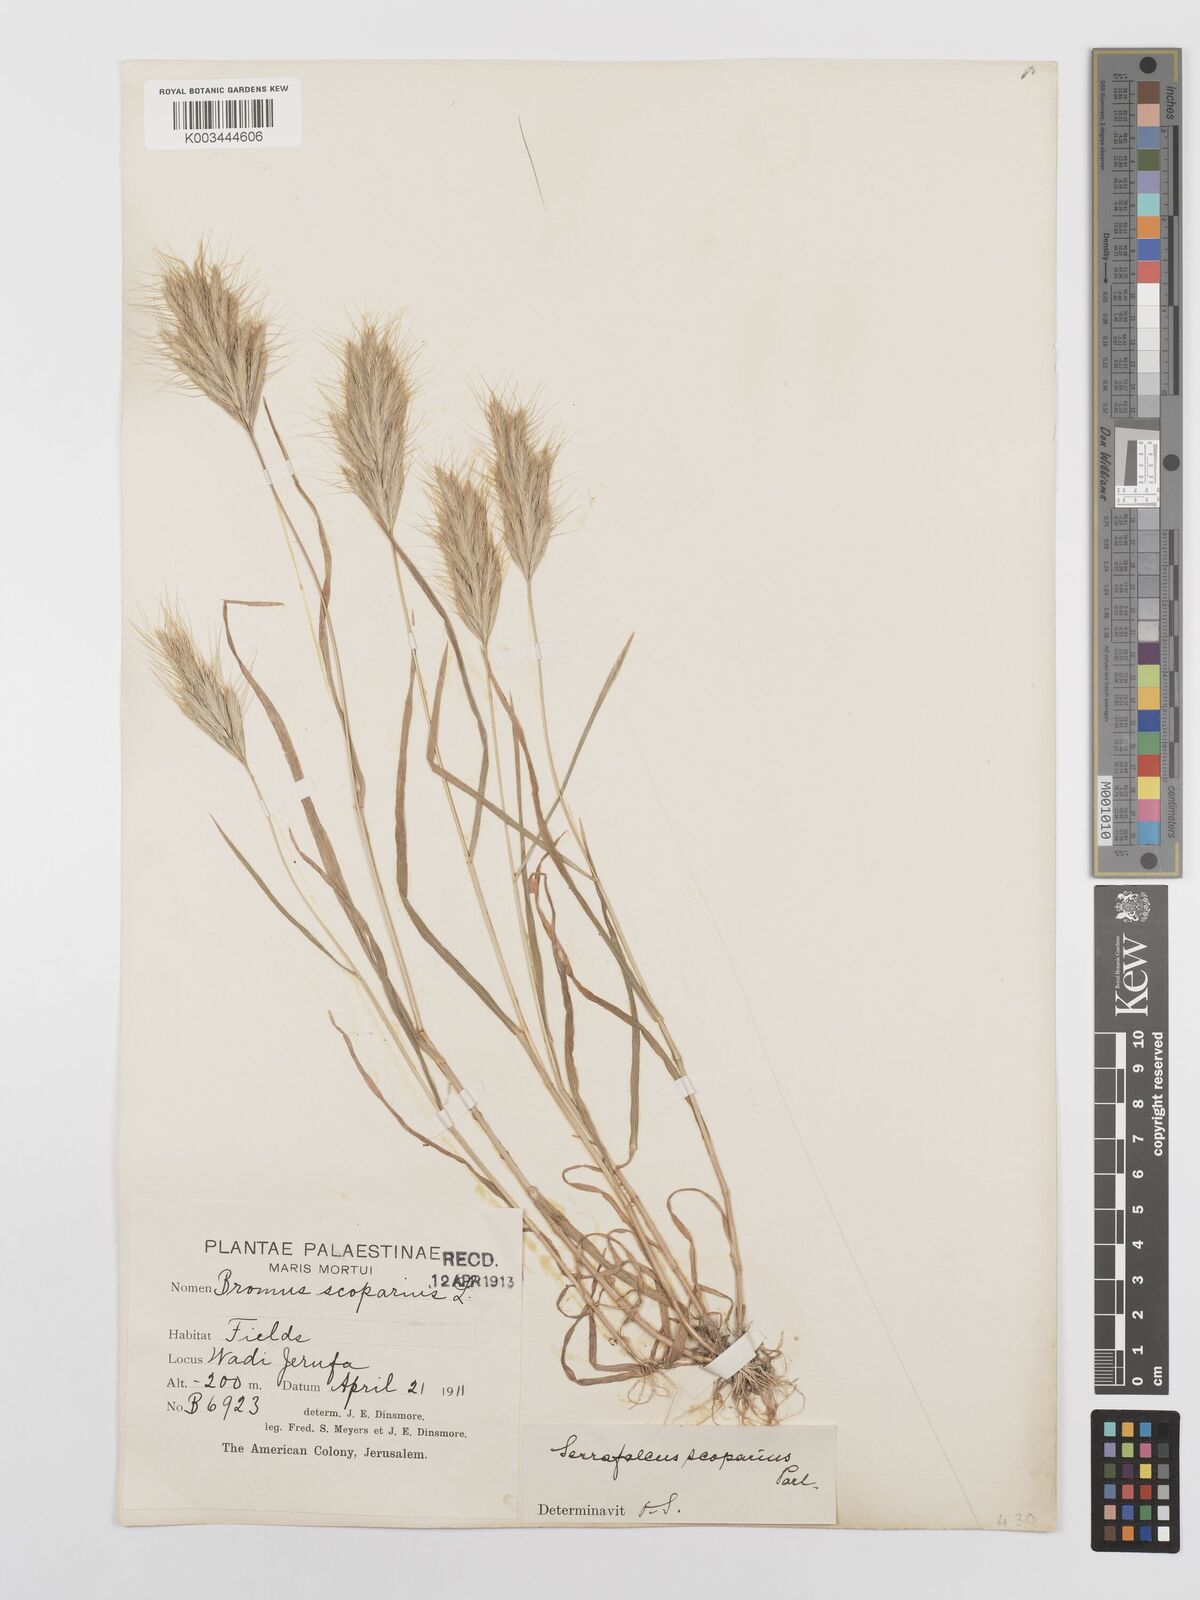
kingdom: Plantae
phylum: Tracheophyta
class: Liliopsida
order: Poales
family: Poaceae
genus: Bromus
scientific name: Bromus scoparius
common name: Broom brome
